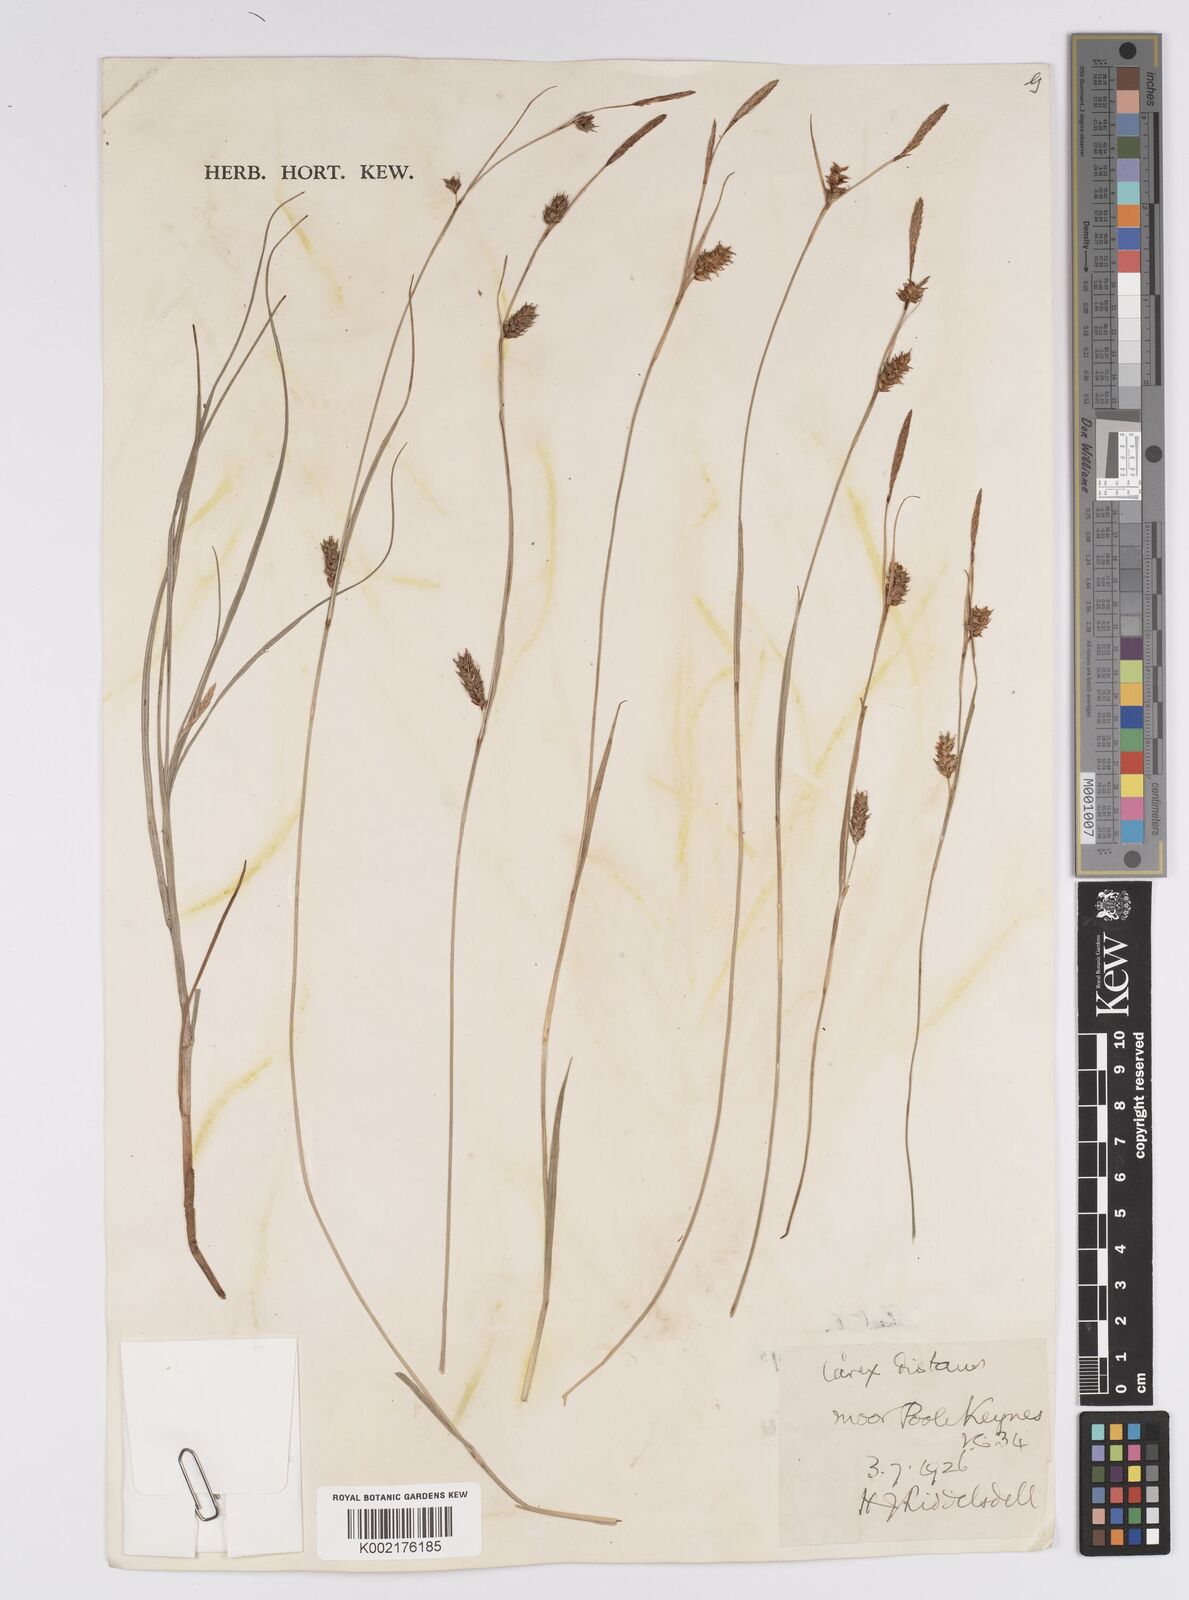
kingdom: Plantae
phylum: Tracheophyta
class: Liliopsida
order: Poales
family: Cyperaceae
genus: Carex
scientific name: Carex distans
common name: Distant sedge
